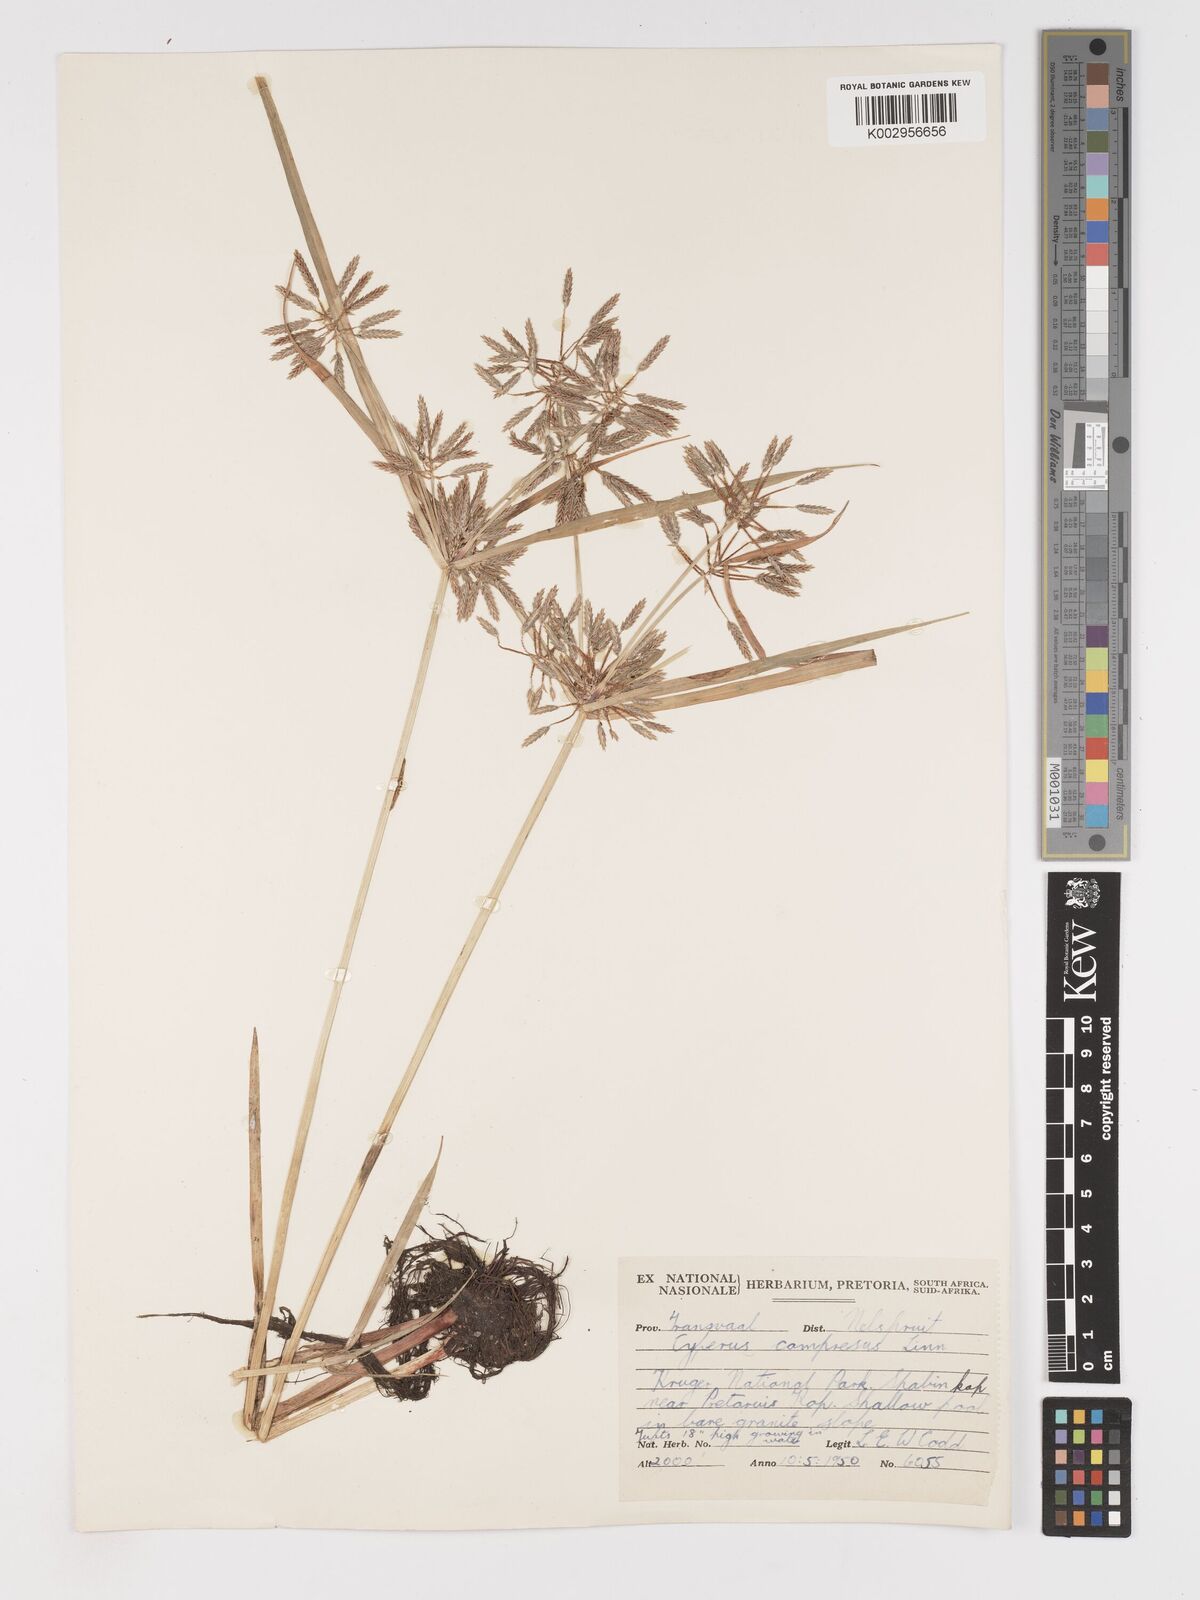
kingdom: Plantae
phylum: Tracheophyta
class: Liliopsida
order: Poales
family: Cyperaceae
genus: Cyperus
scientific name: Cyperus compressus
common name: Poorland flatsedge
